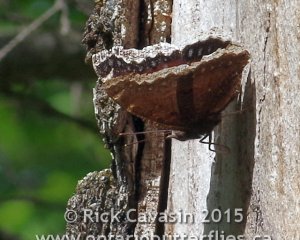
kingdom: Animalia
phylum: Arthropoda
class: Insecta
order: Lepidoptera
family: Nymphalidae
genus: Nymphalis
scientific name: Nymphalis antiopa
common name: Mourning Cloak
